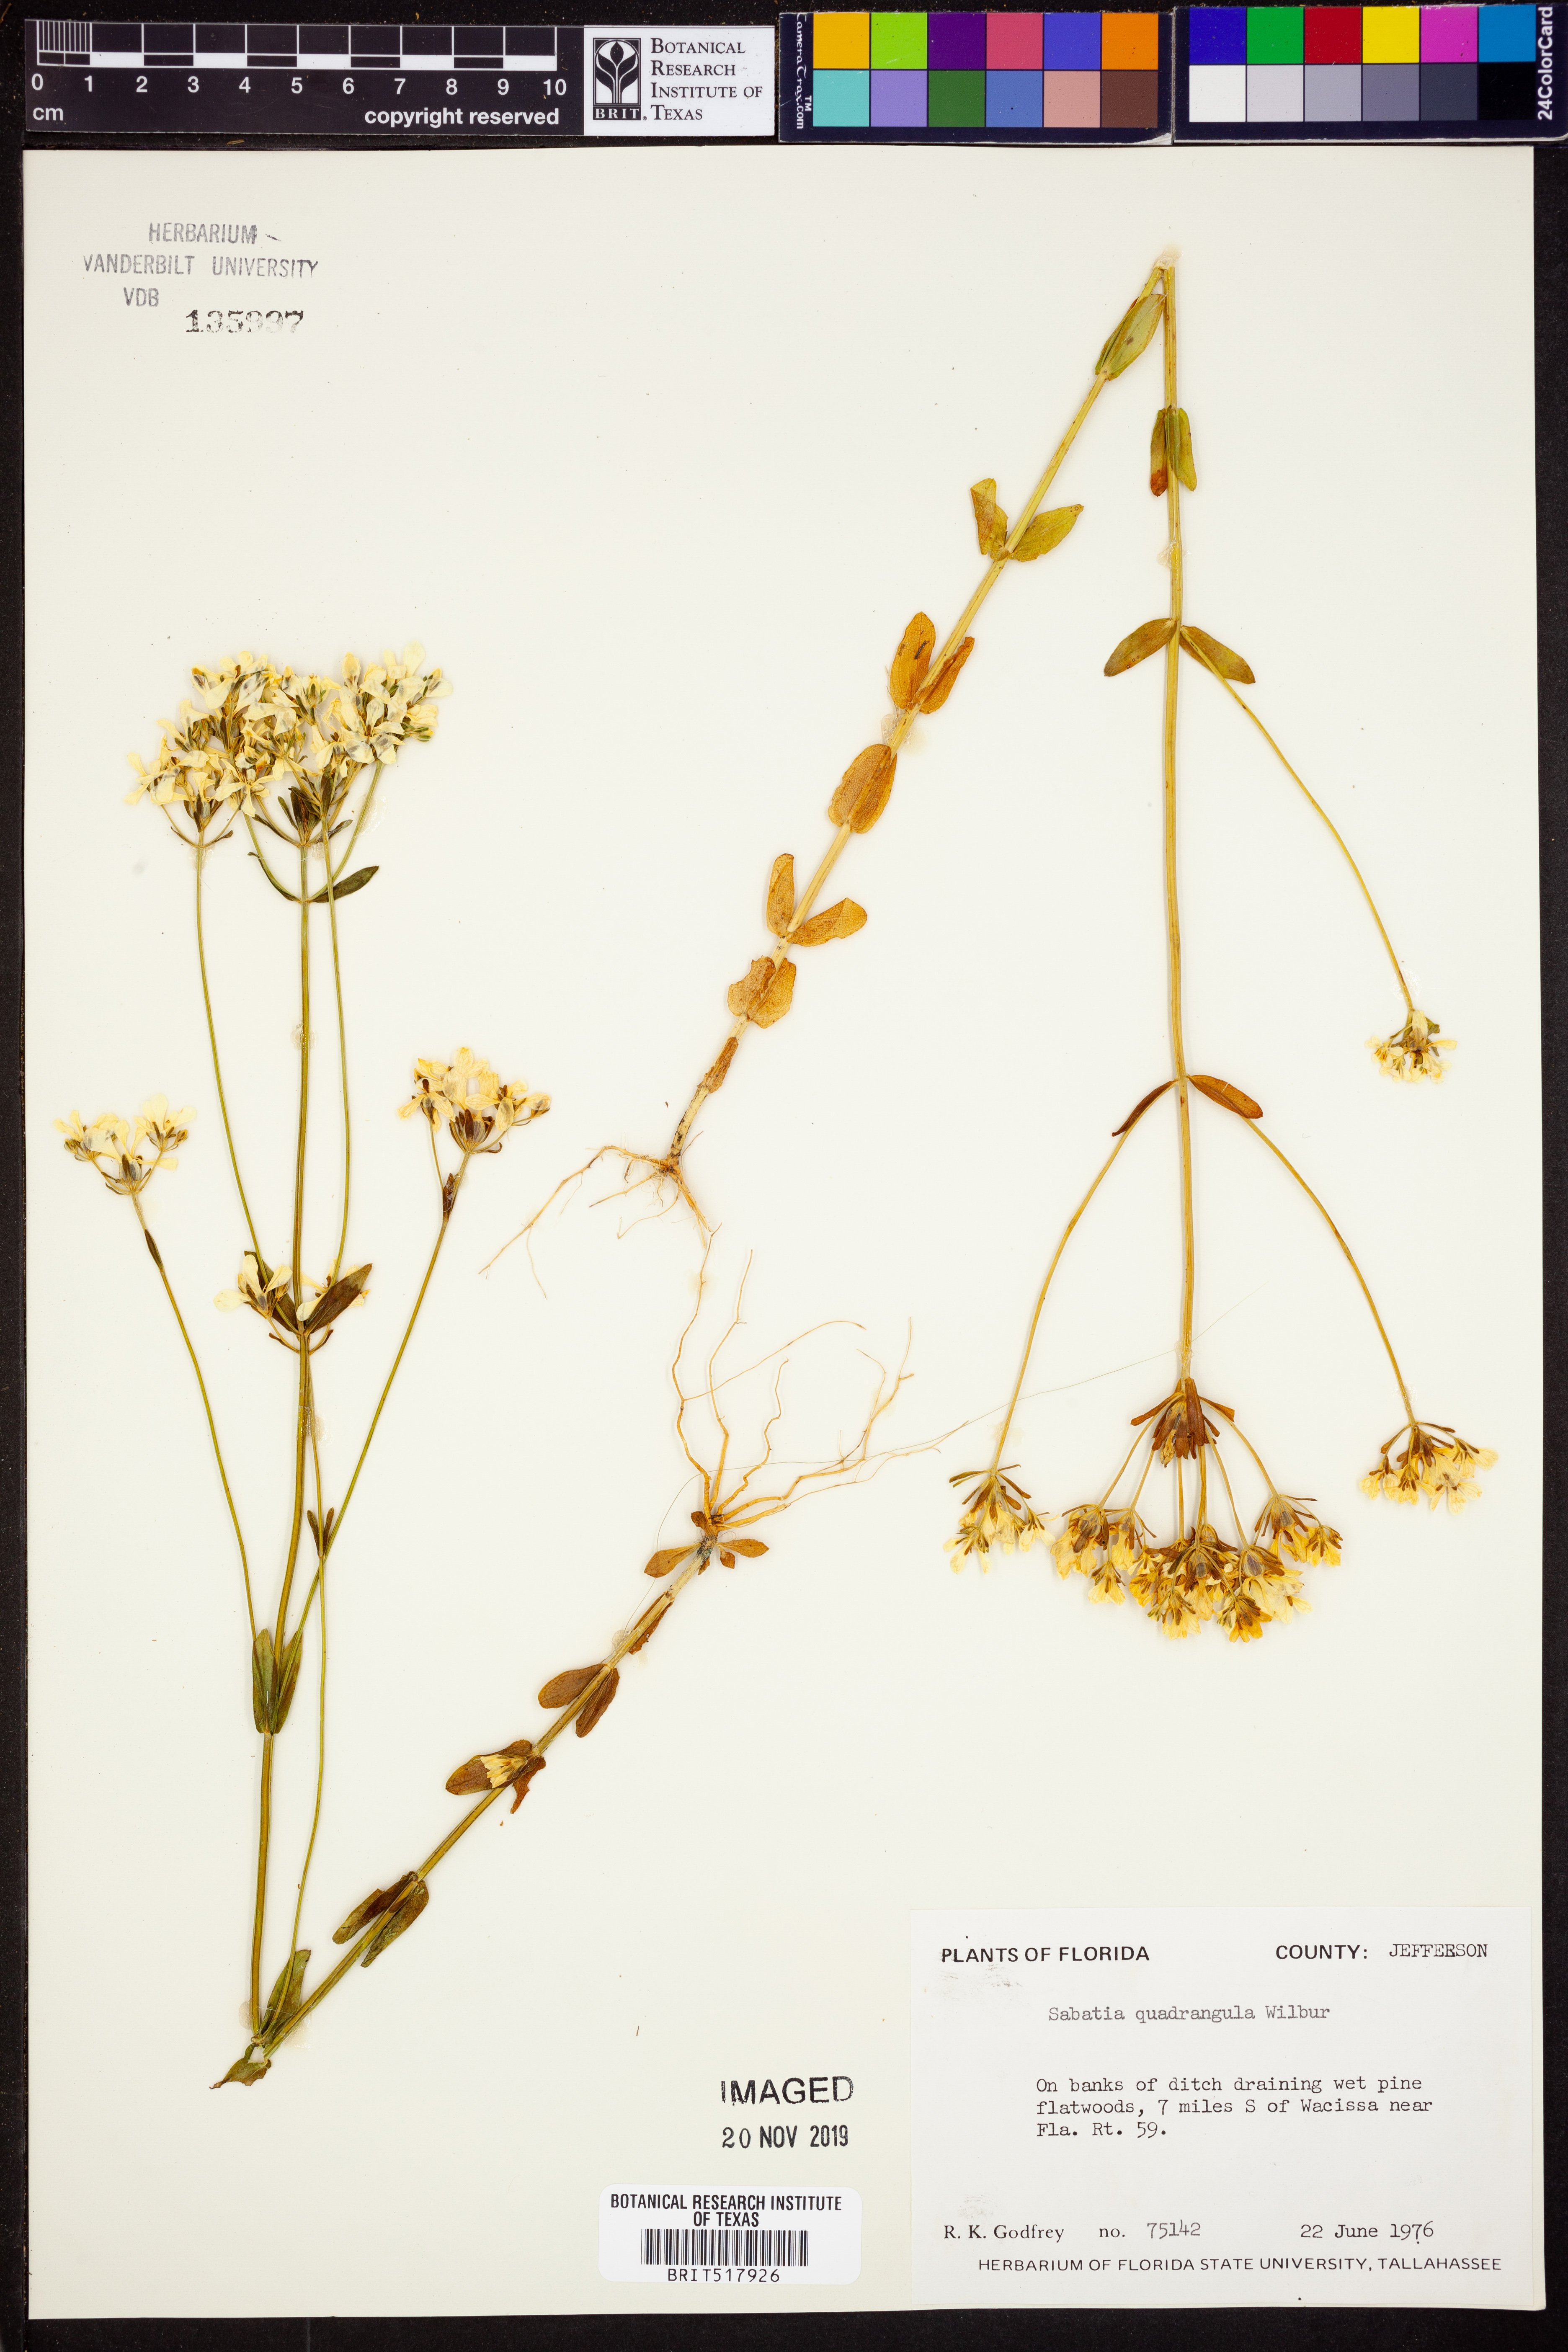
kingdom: Plantae
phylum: Tracheophyta
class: Magnoliopsida
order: Gentianales
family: Gentianaceae
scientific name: Gentianaceae
